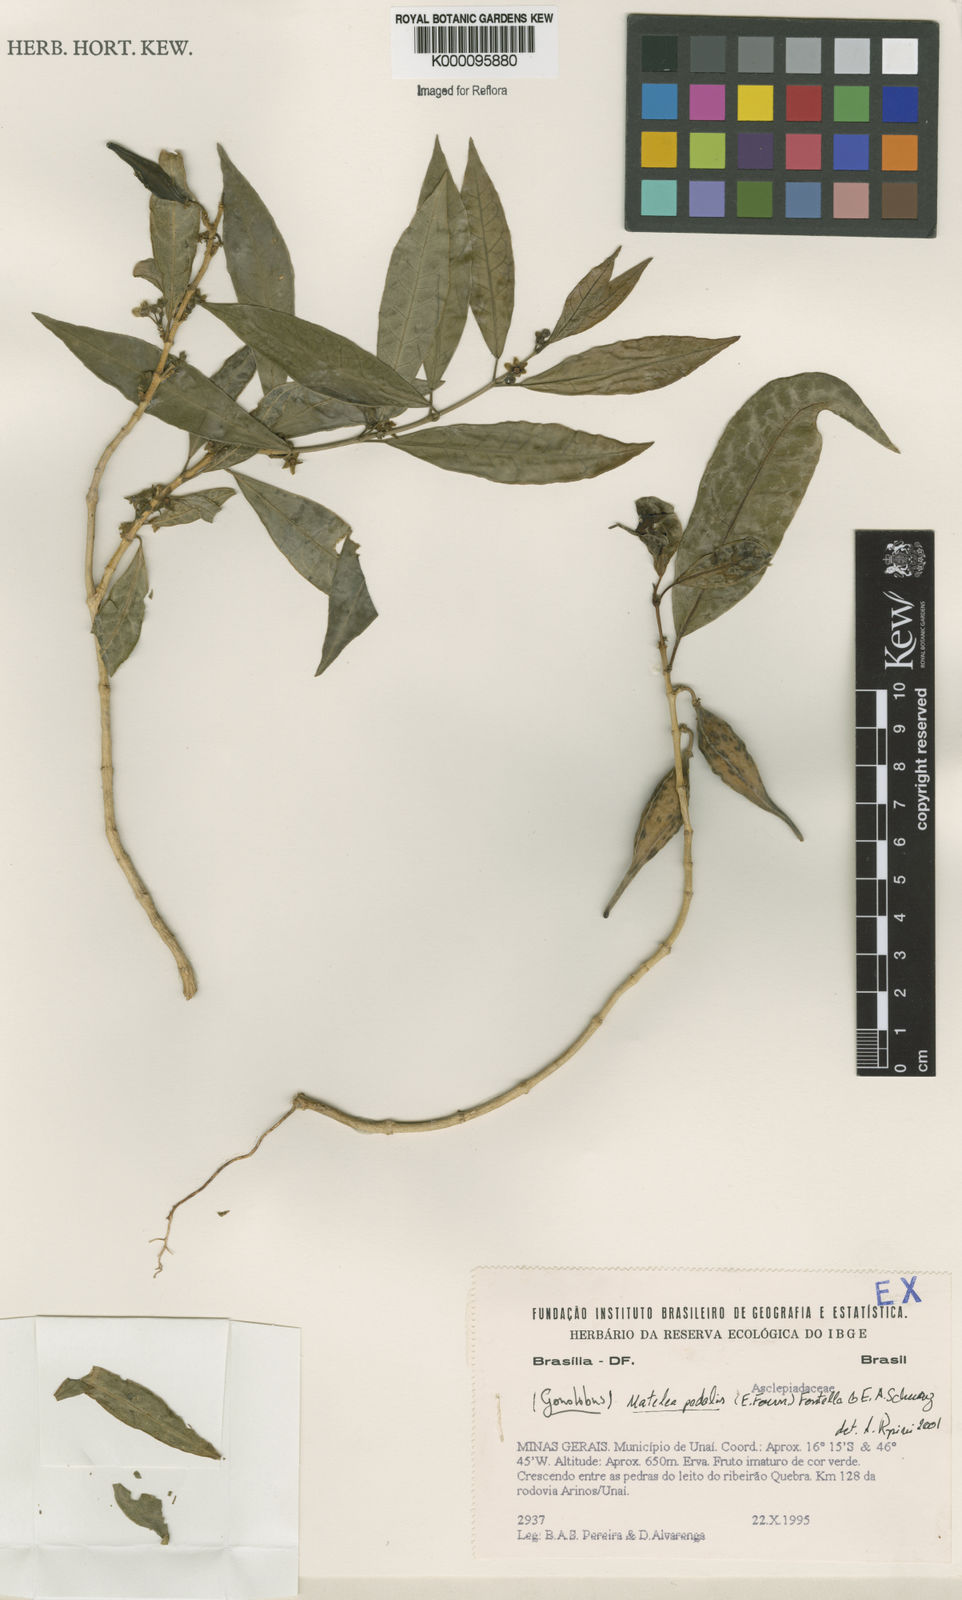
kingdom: Plantae
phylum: Tracheophyta
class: Magnoliopsida
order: Gentianales
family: Apocynaceae
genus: Matelea
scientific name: Matelea pedalis
